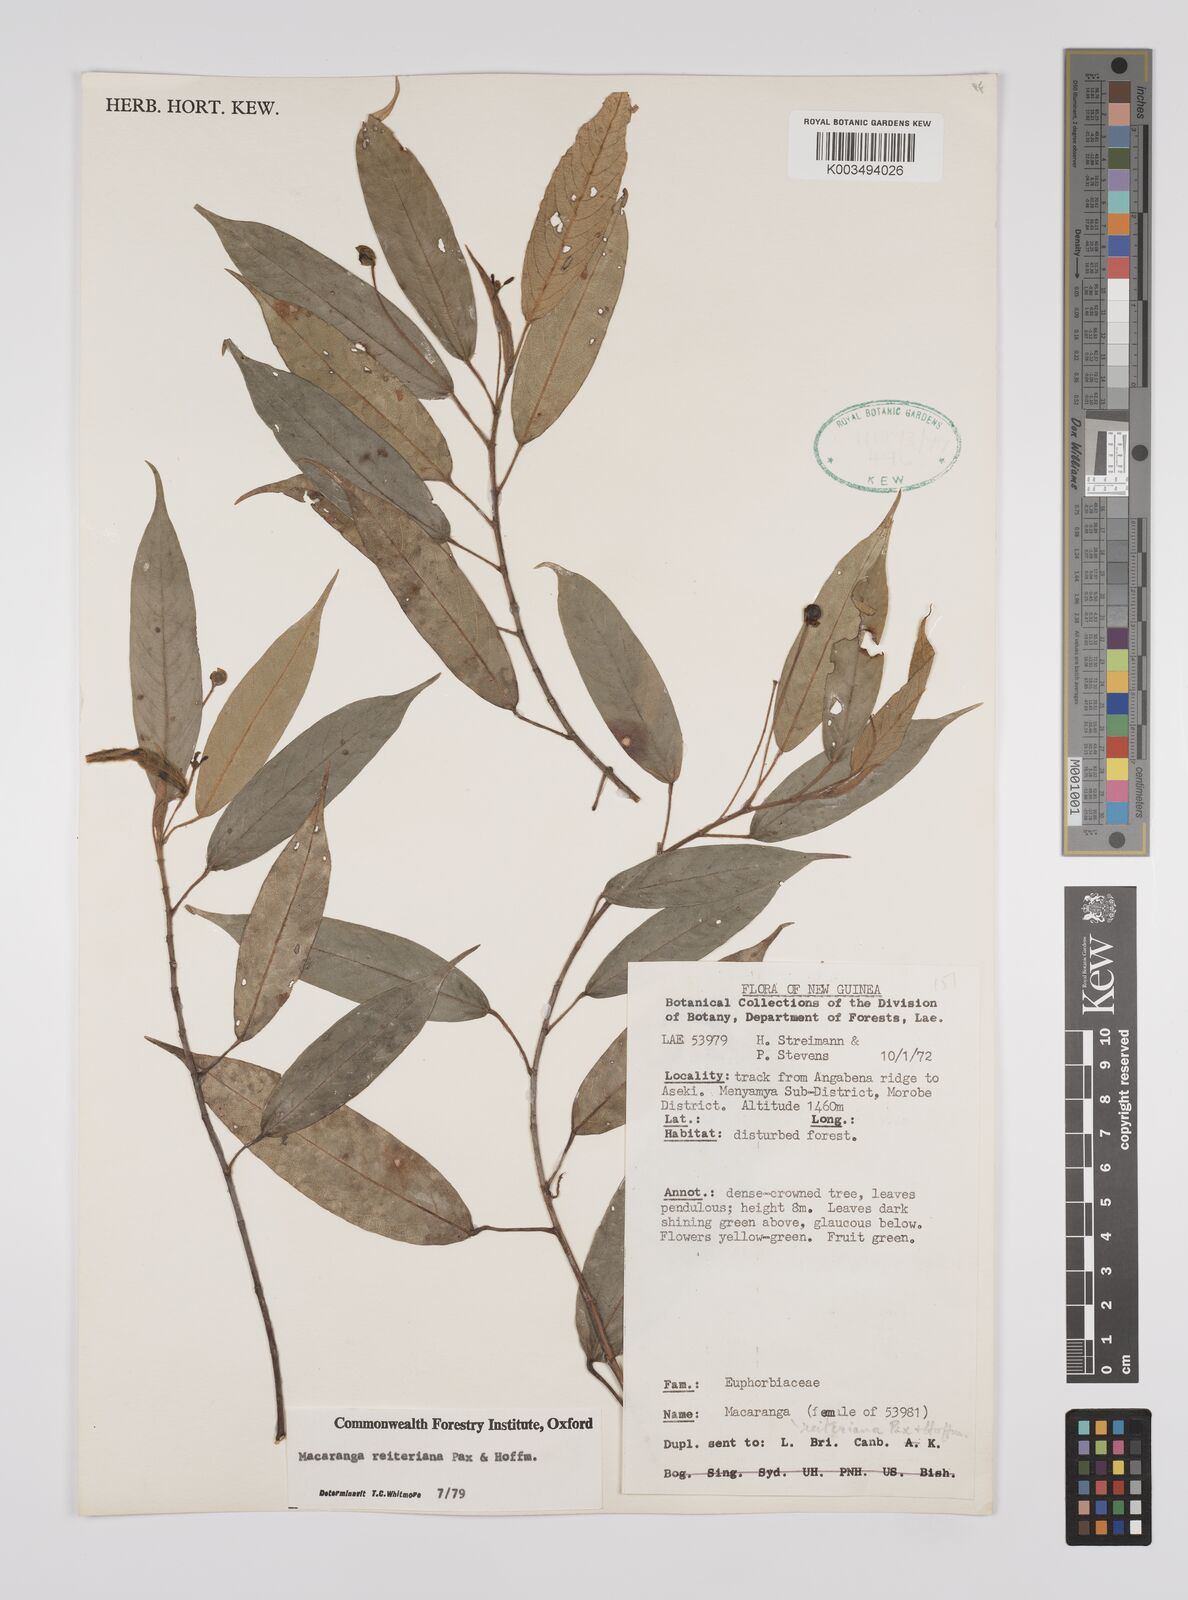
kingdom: Plantae
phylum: Tracheophyta
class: Magnoliopsida
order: Malpighiales
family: Euphorbiaceae
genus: Macaranga
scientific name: Macaranga reiteriana
